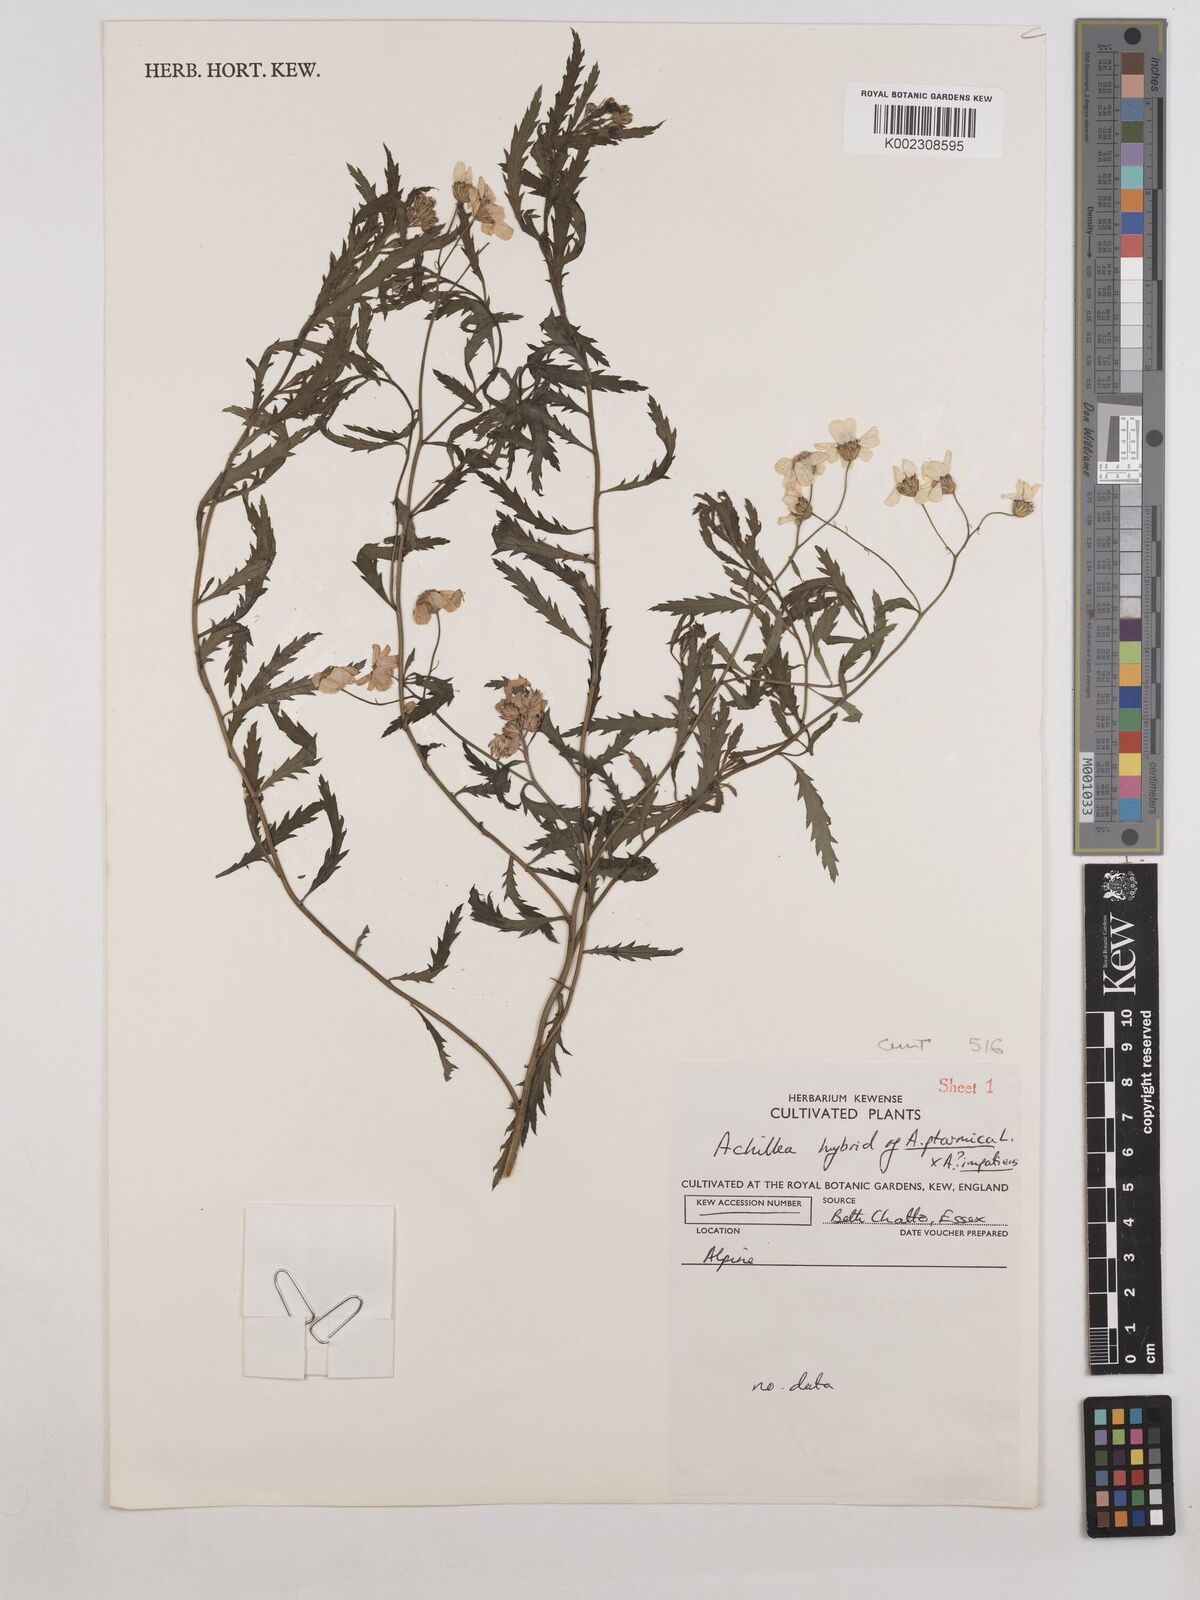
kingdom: Plantae
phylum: Tracheophyta
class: Magnoliopsida
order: Asterales
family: Asteraceae
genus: Achillea
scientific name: Achillea ptarmica
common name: Sneezeweed
